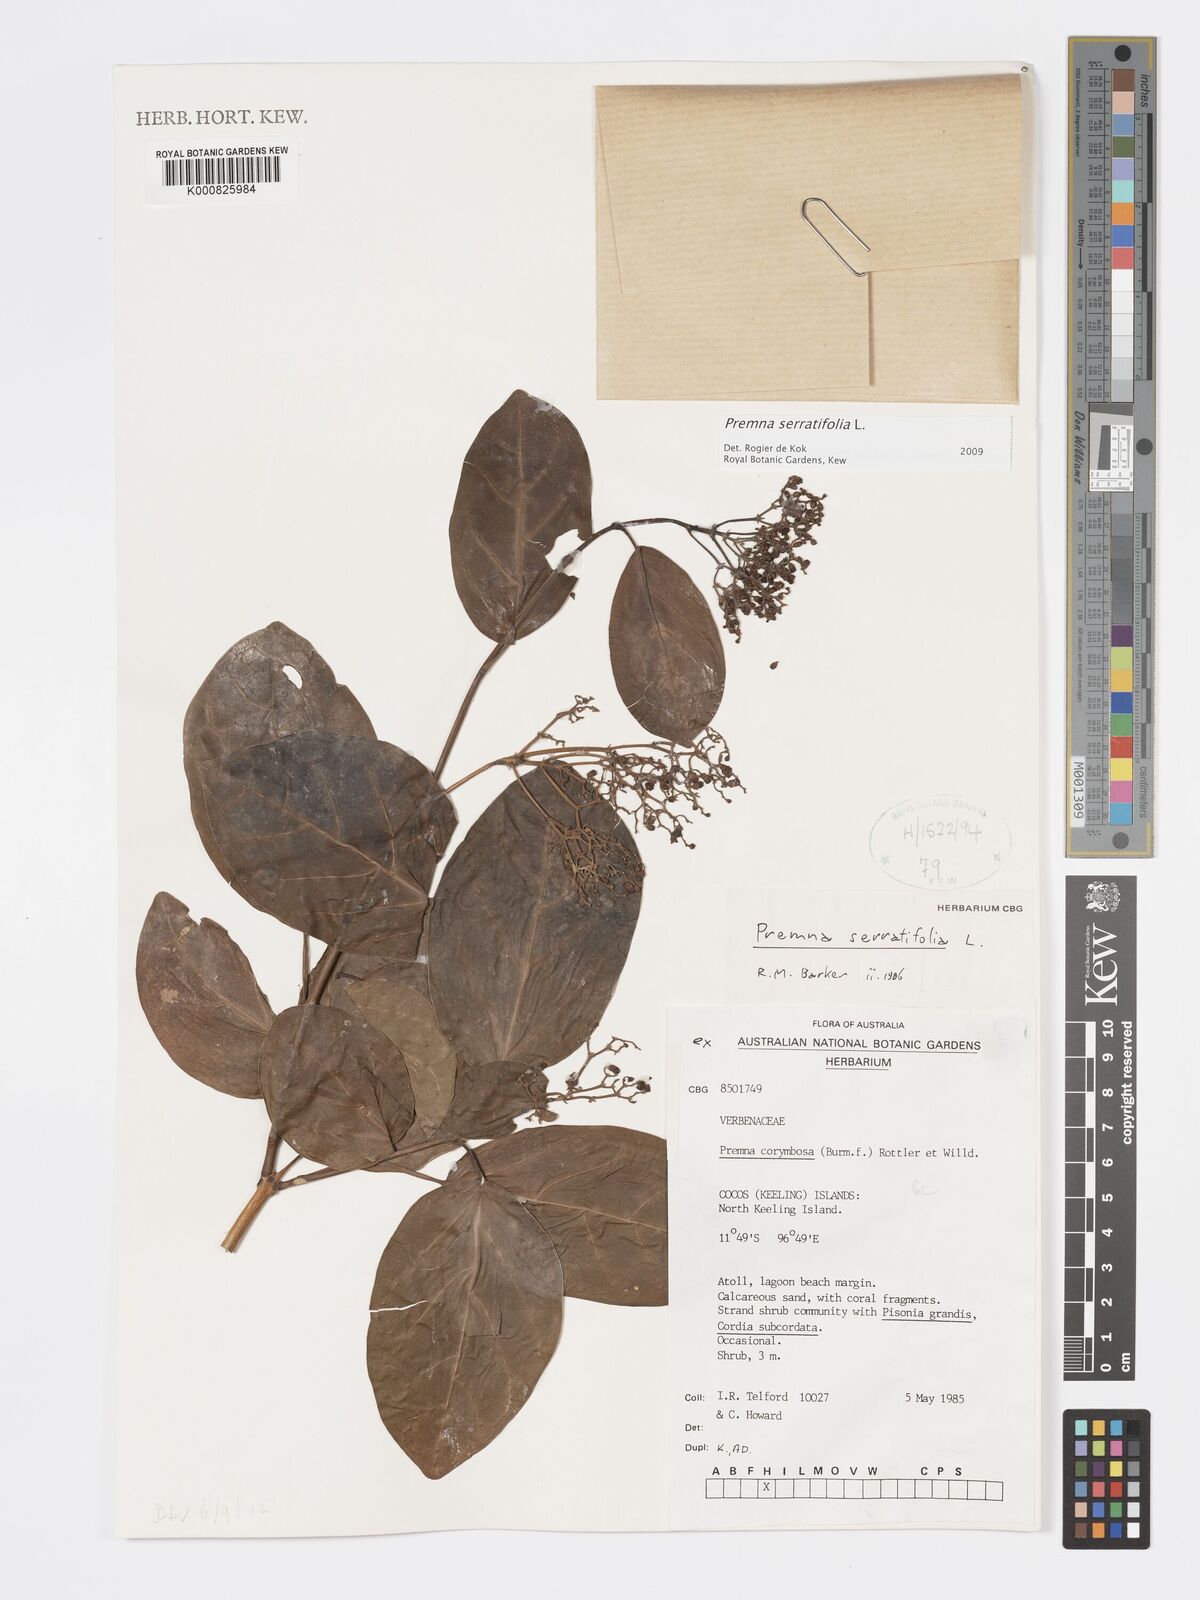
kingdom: Plantae
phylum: Tracheophyta
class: Magnoliopsida
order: Lamiales
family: Lamiaceae
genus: Premna
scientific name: Premna serratifolia
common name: Bastard guelder
